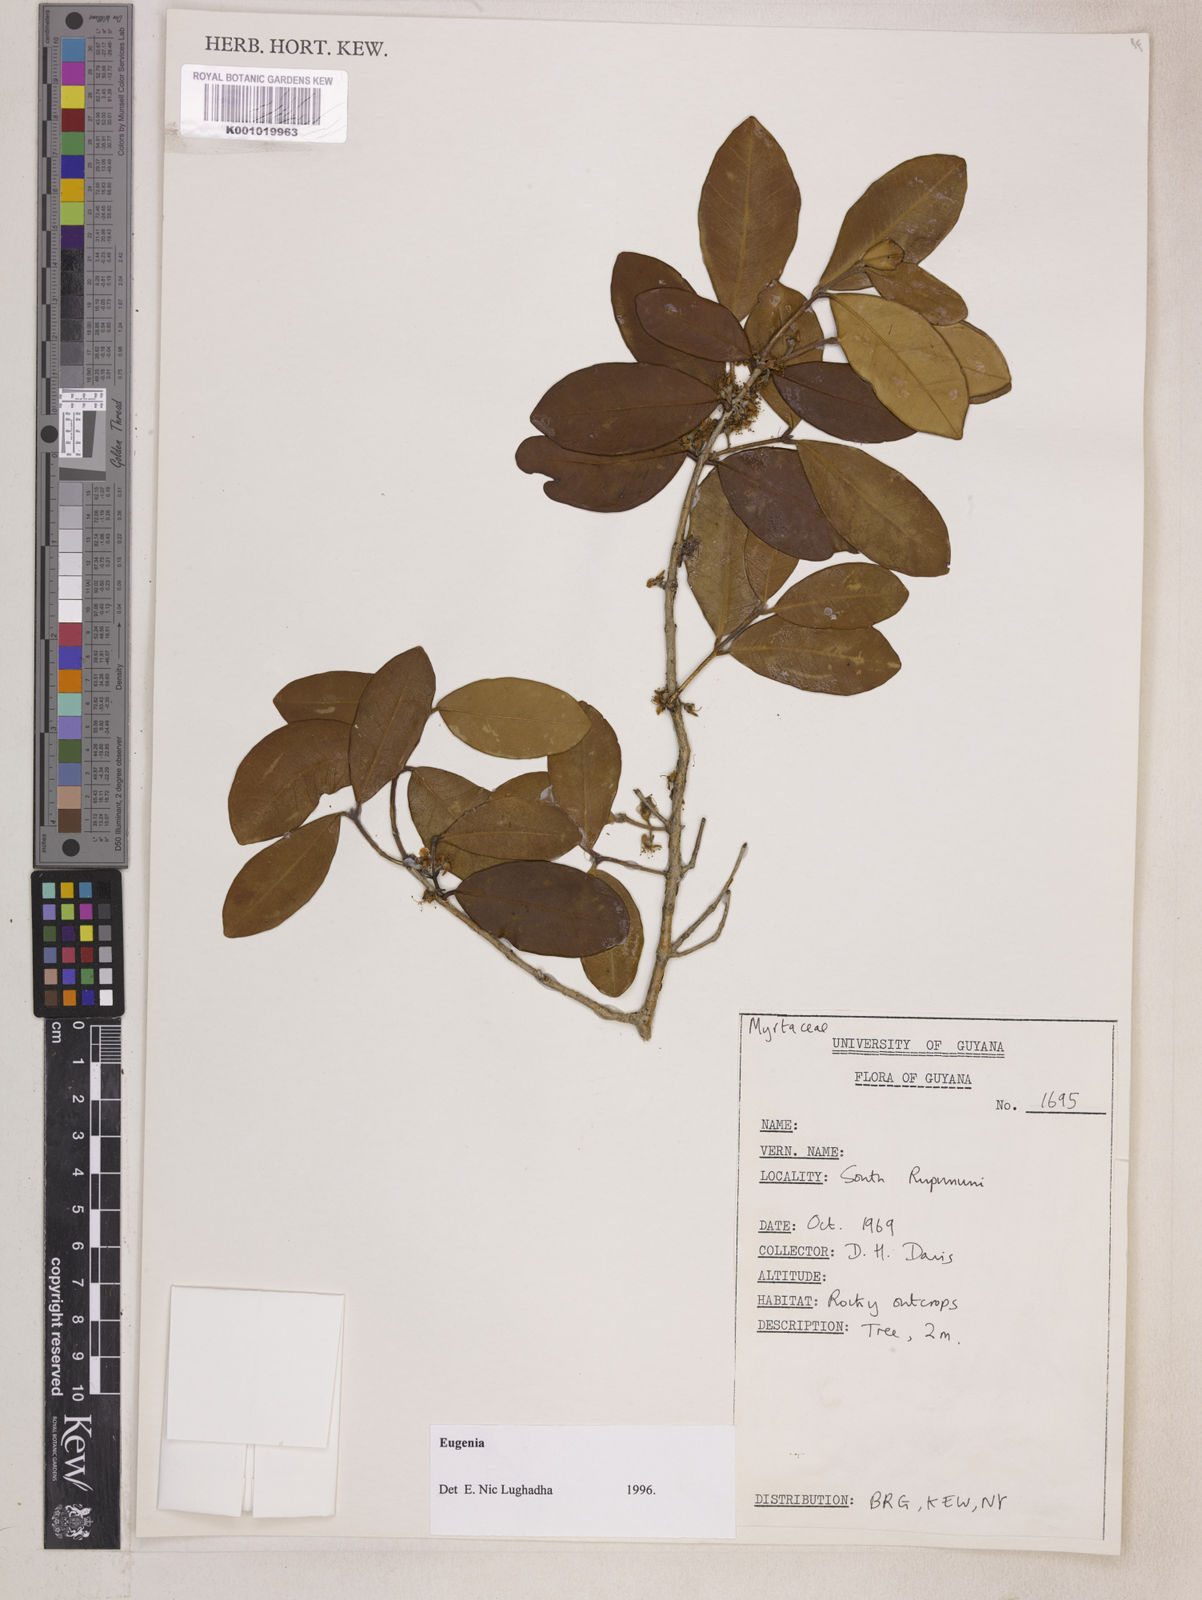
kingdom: Plantae
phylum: Tracheophyta
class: Magnoliopsida
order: Myrtales
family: Myrtaceae
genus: Eugenia
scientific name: Eugenia punicifolia
